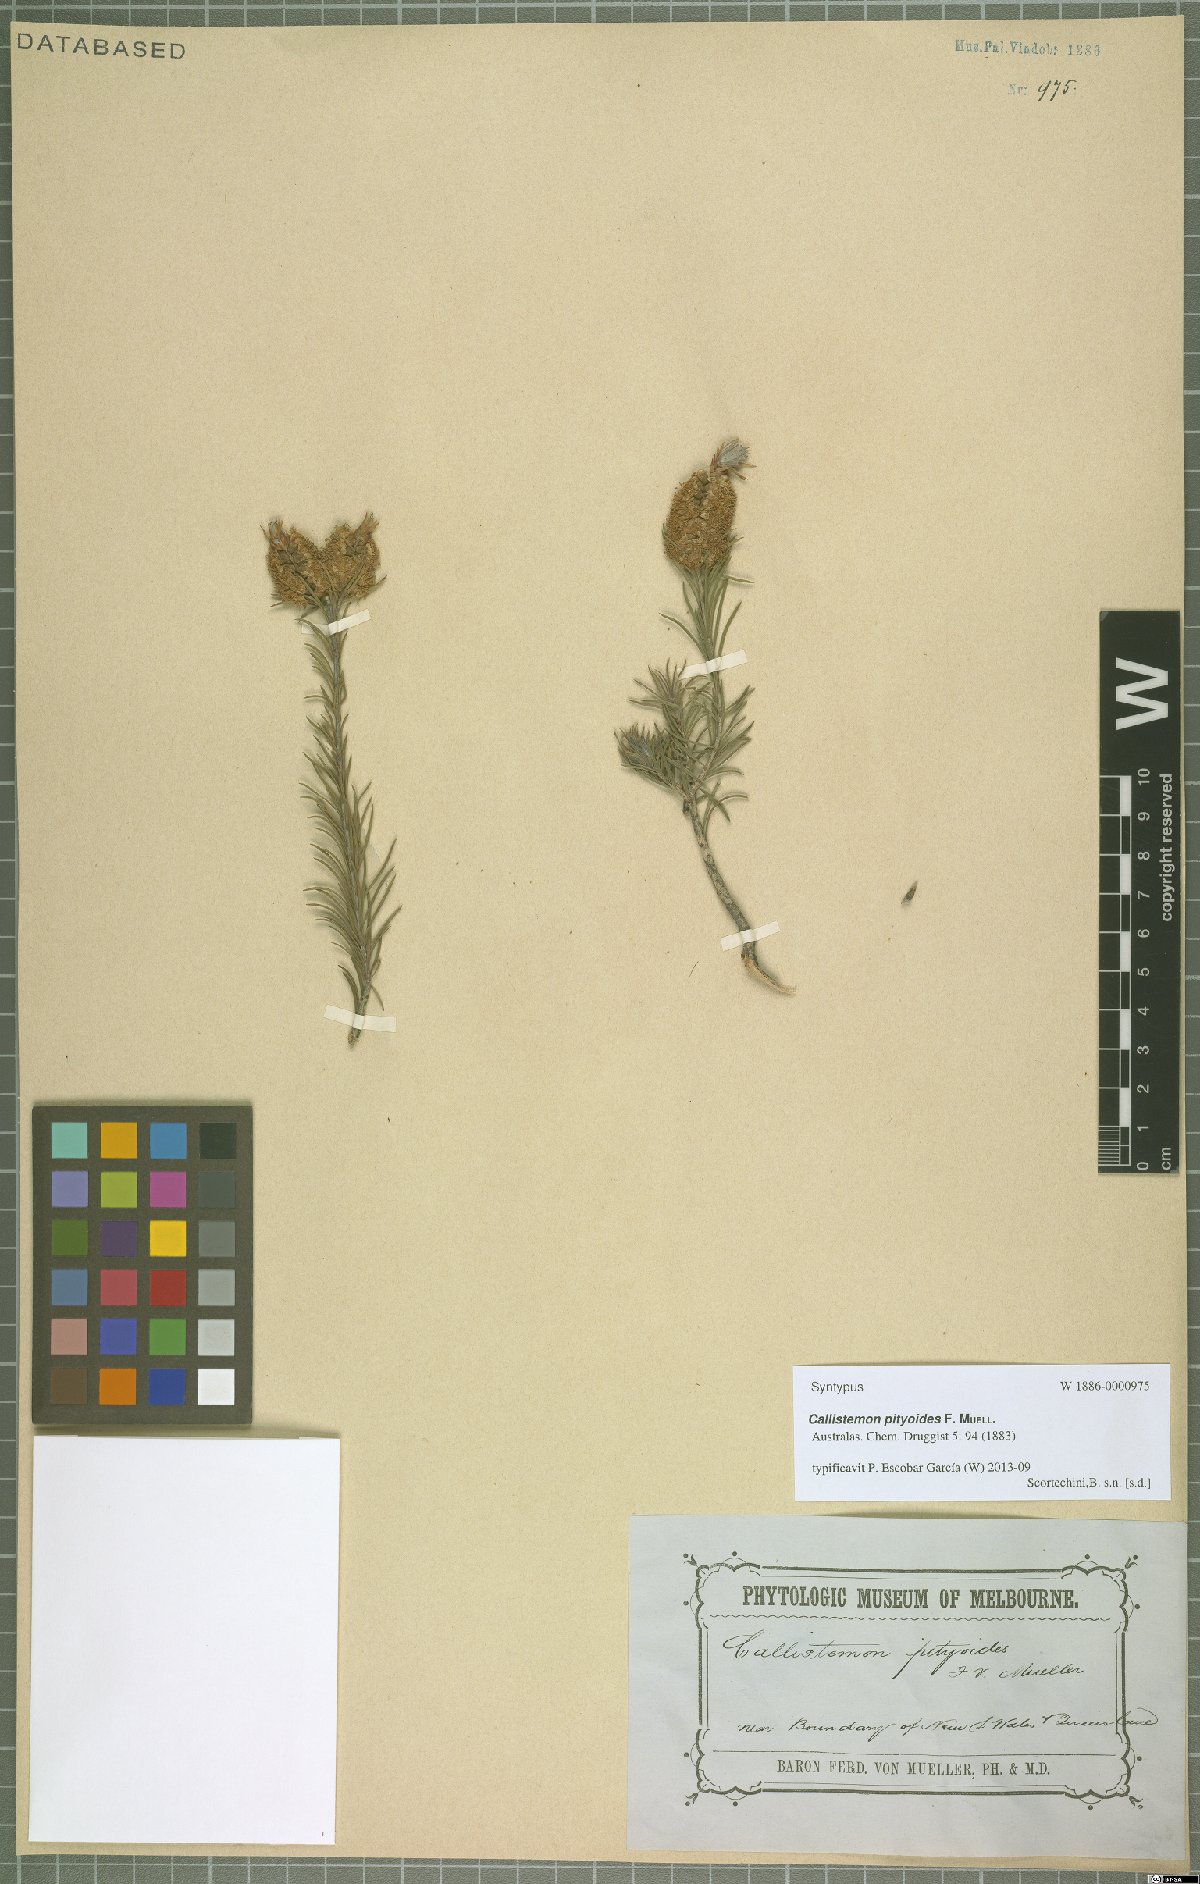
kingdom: Plantae
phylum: Tracheophyta
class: Magnoliopsida
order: Myrtales
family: Myrtaceae
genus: Callistemon
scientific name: Callistemon pityoides
